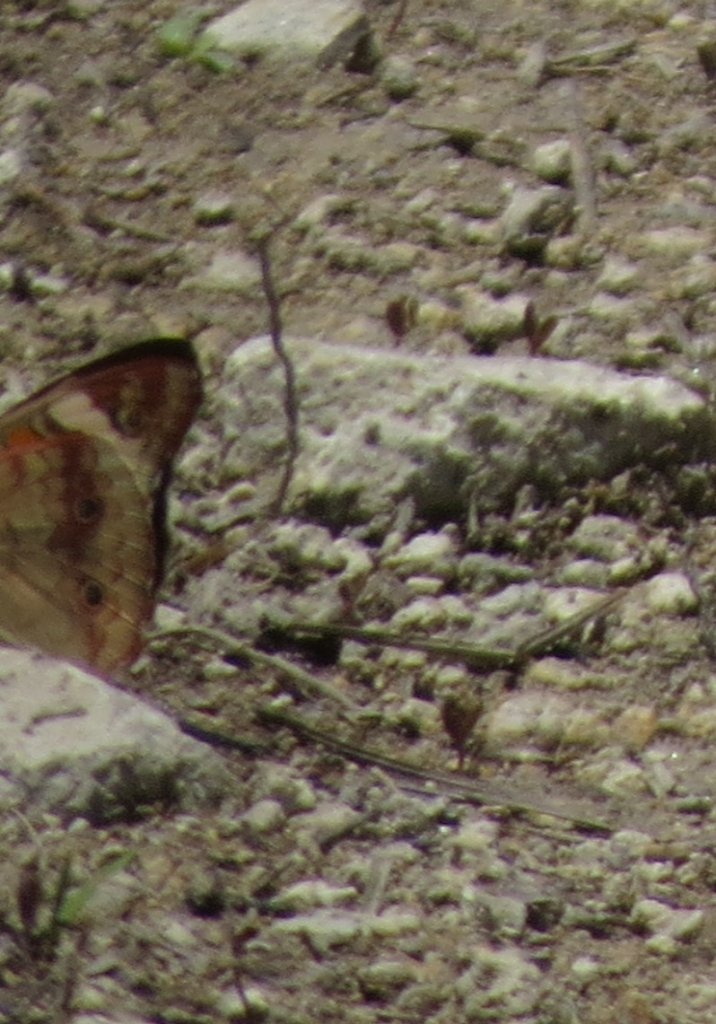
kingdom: Animalia
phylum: Arthropoda
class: Insecta
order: Lepidoptera
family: Nymphalidae
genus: Junonia
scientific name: Junonia coenia
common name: Common Buckeye
